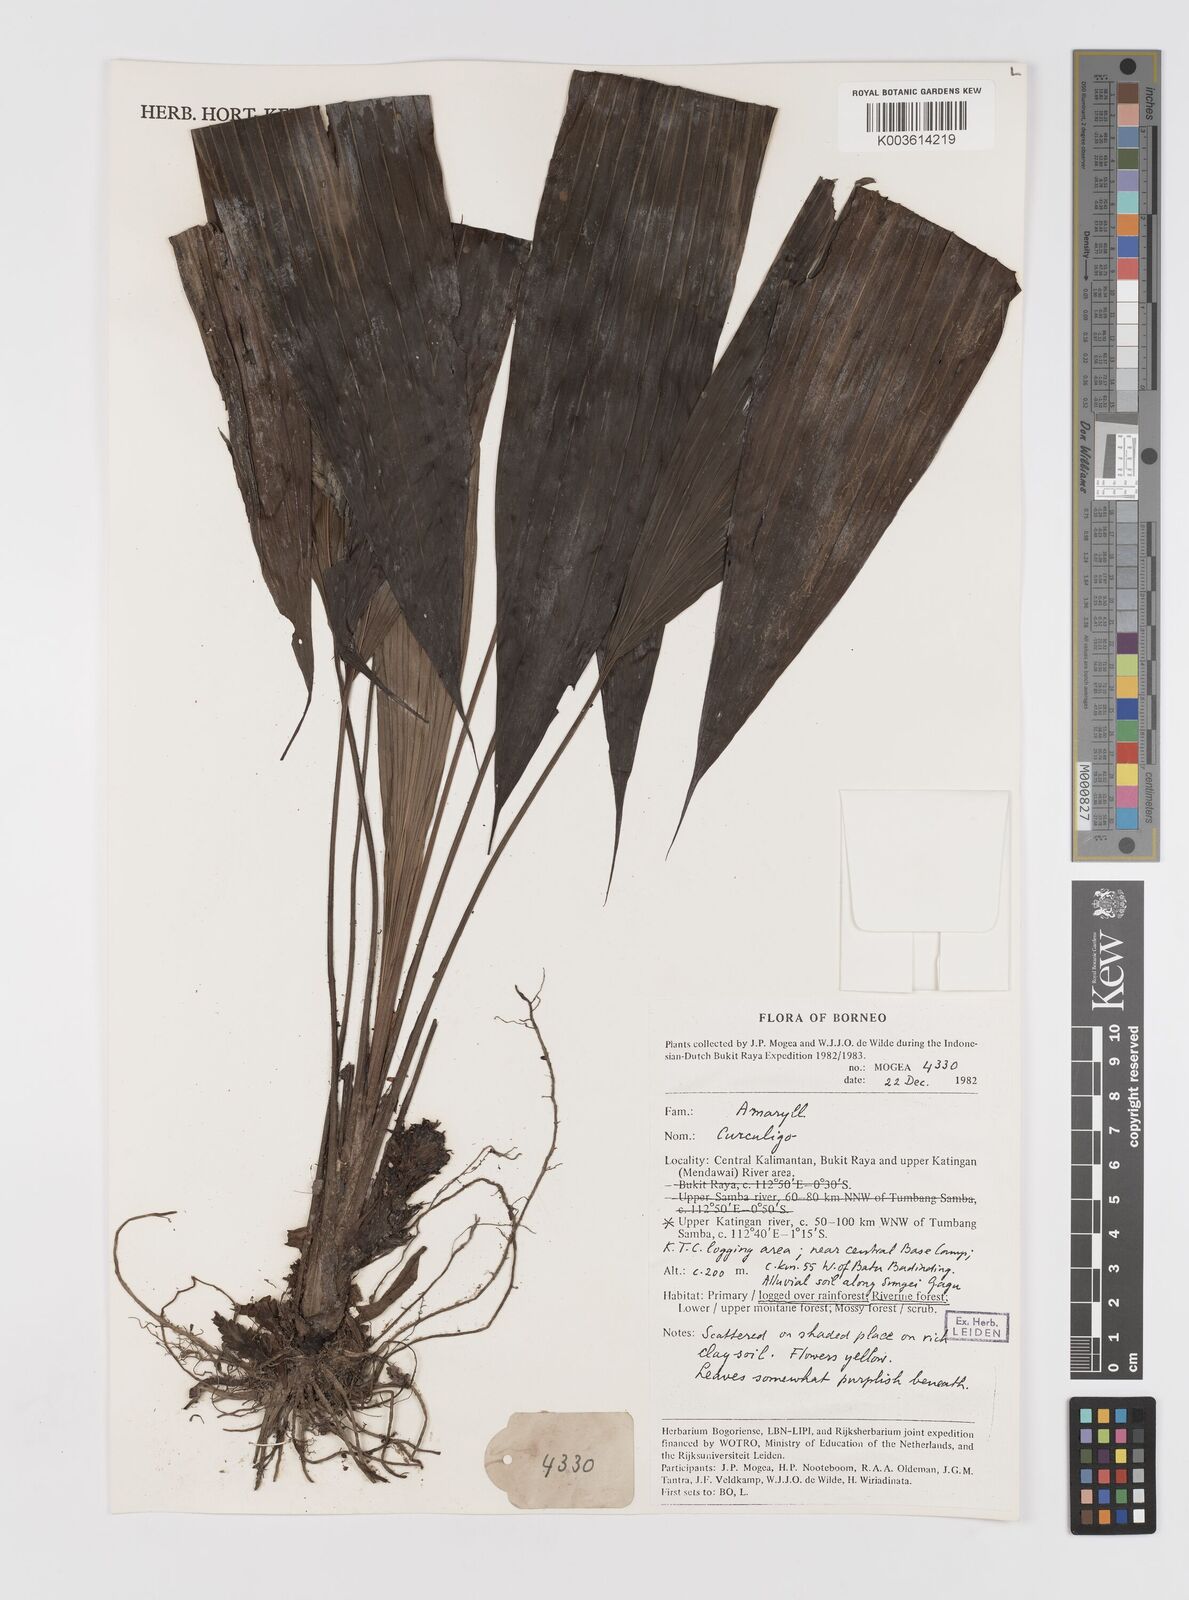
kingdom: Plantae
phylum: Tracheophyta
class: Liliopsida
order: Asparagales
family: Hypoxidaceae
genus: Curculigo
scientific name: Curculigo
